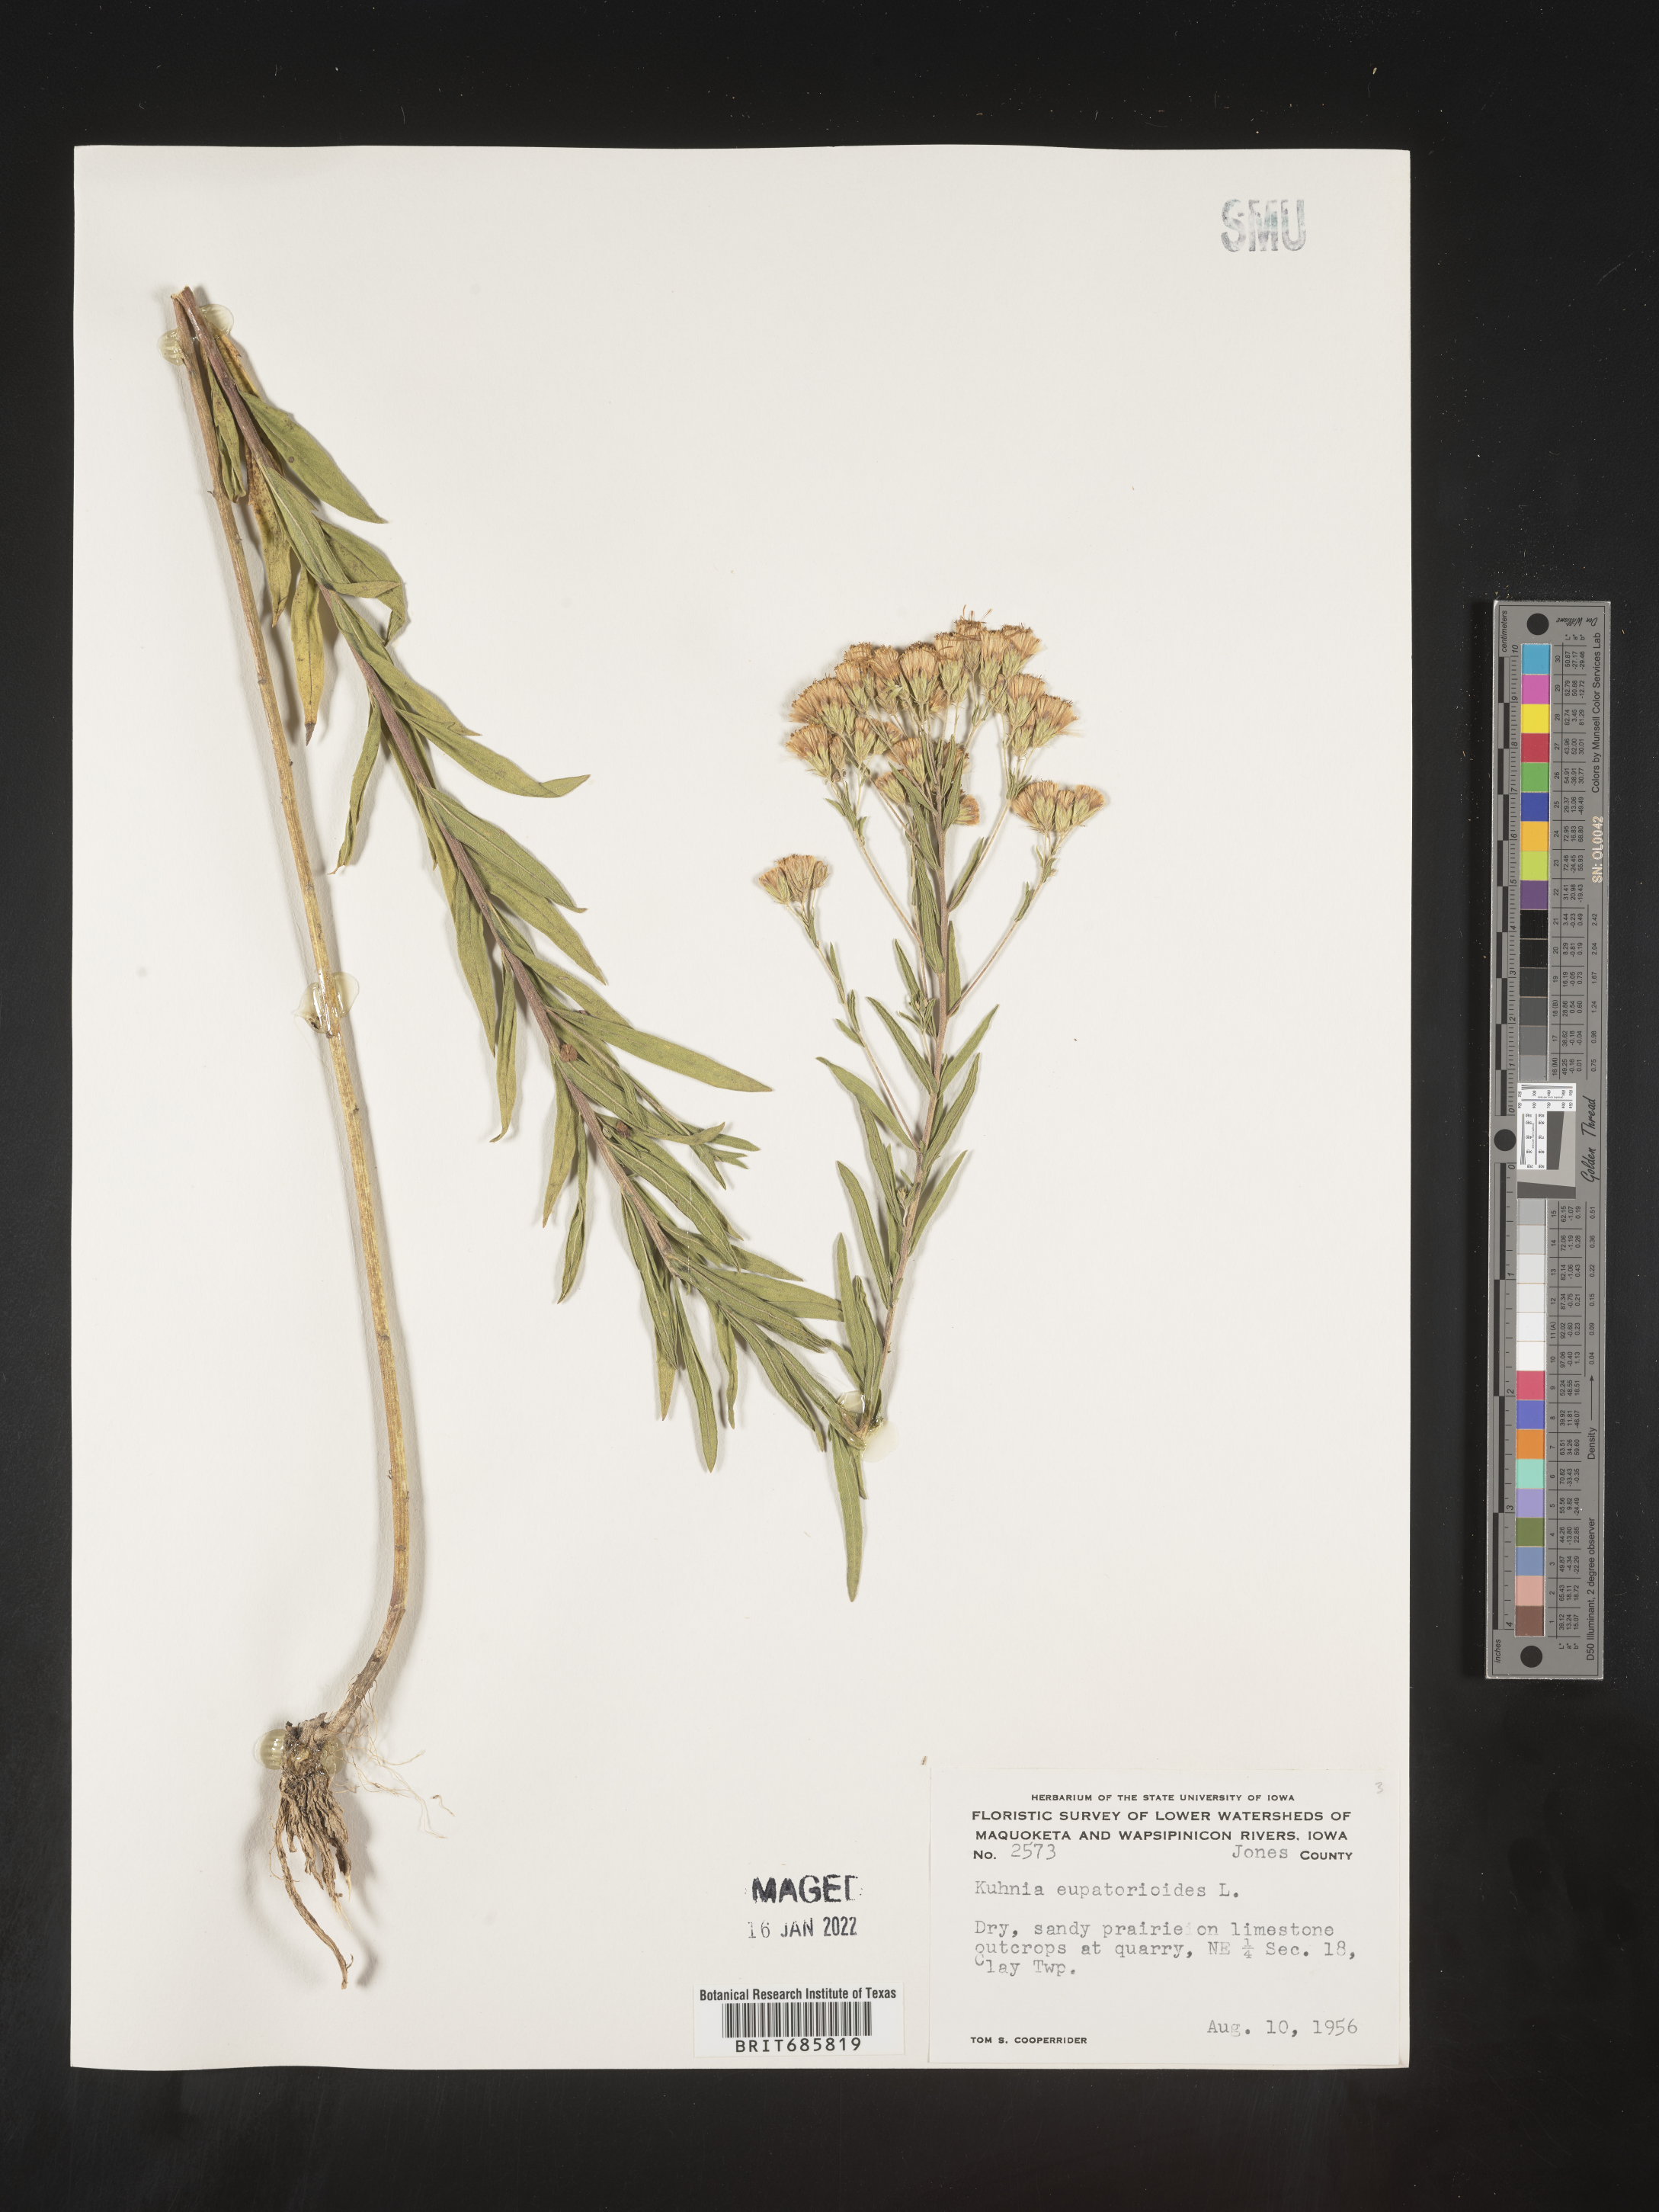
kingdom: Plantae
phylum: Tracheophyta
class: Magnoliopsida
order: Asterales
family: Asteraceae
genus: Brickellia
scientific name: Brickellia eupatorioides
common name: False boneset
